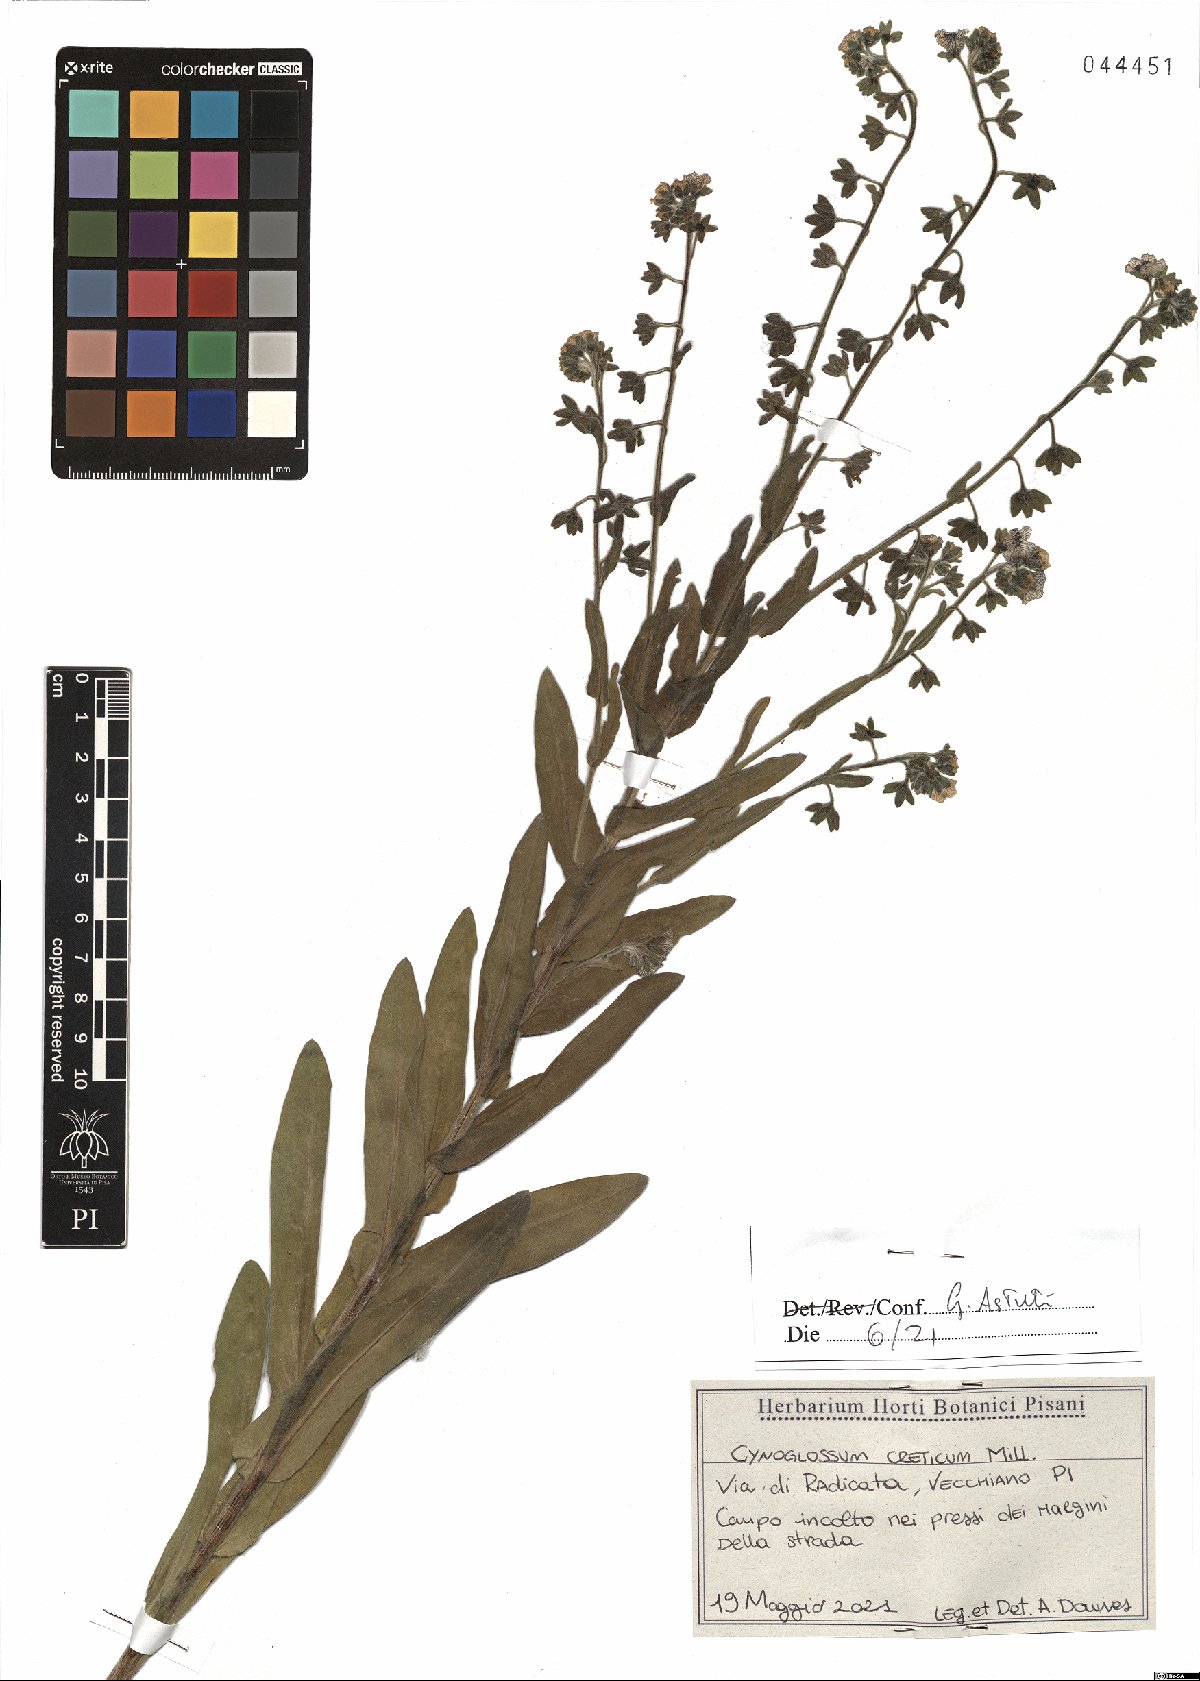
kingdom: Plantae
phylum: Tracheophyta
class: Magnoliopsida
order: Boraginales
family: Boraginaceae
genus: Cynoglossum
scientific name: Cynoglossum creticum
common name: Blue hound's tongue
